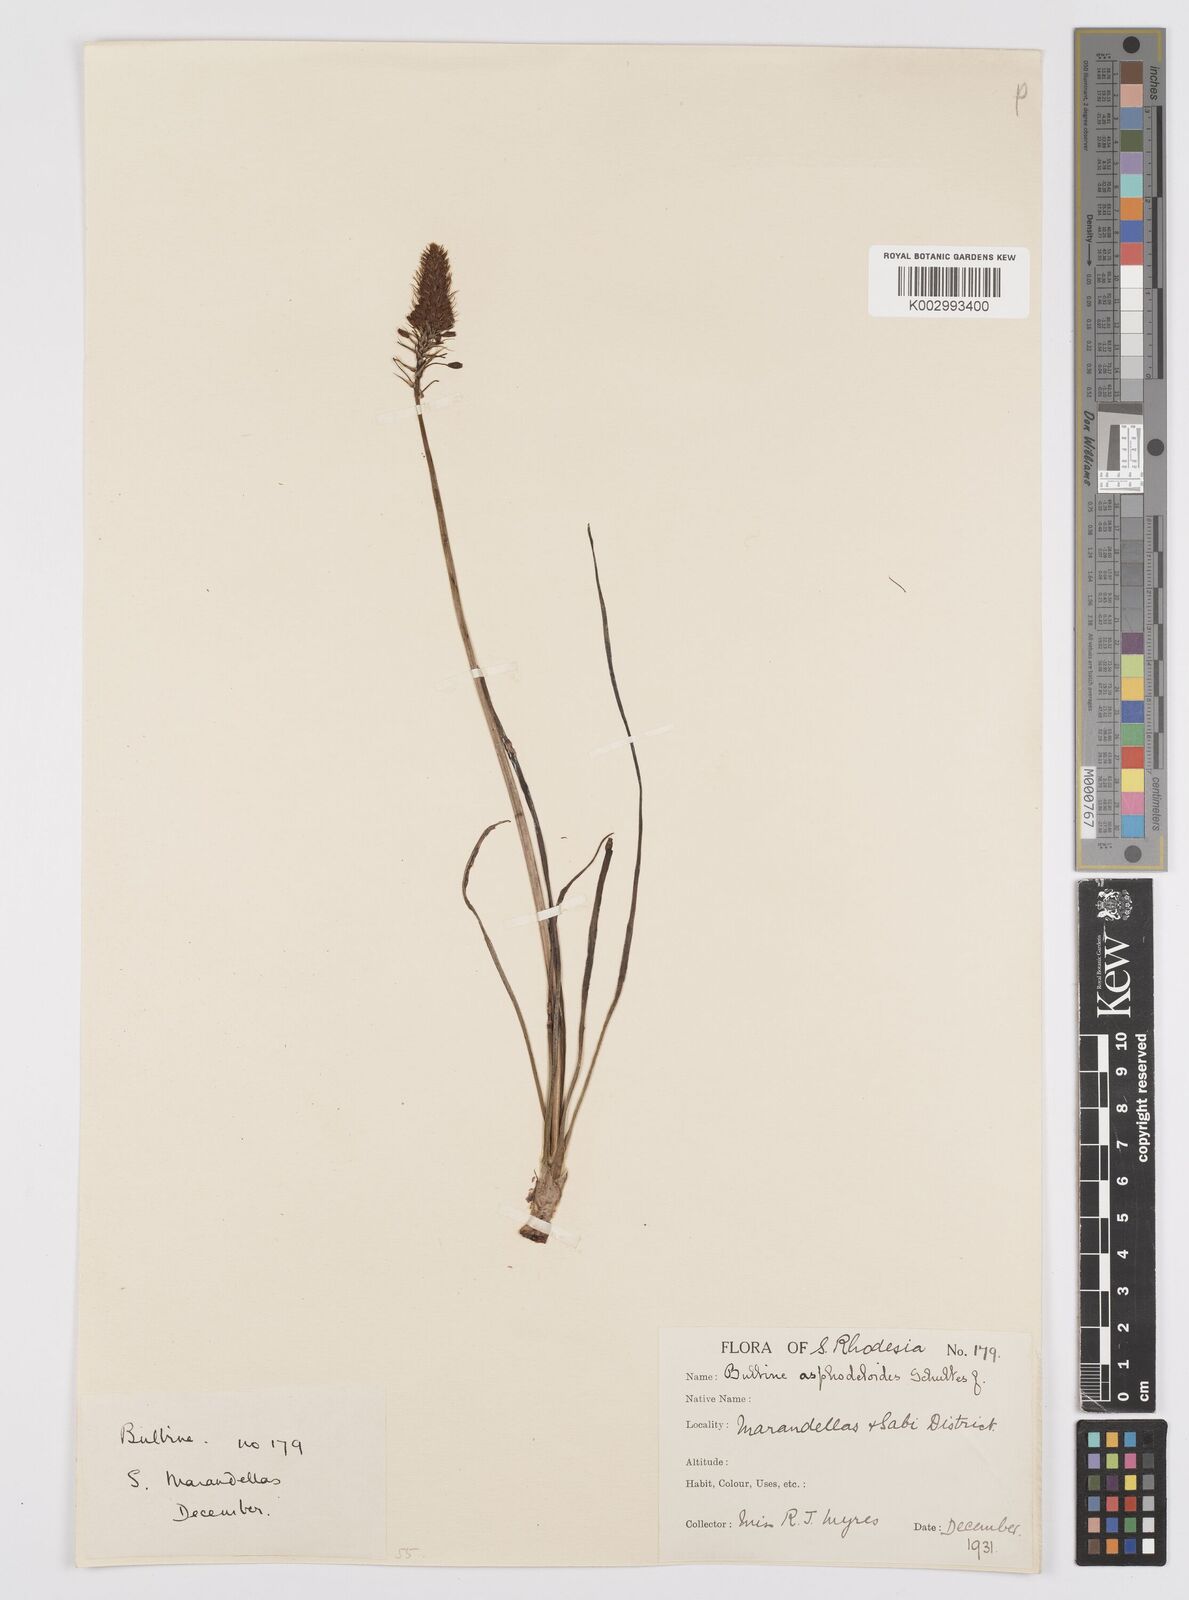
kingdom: Plantae
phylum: Tracheophyta
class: Liliopsida
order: Asparagales
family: Asphodelaceae
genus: Bulbine
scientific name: Bulbine abyssinica
